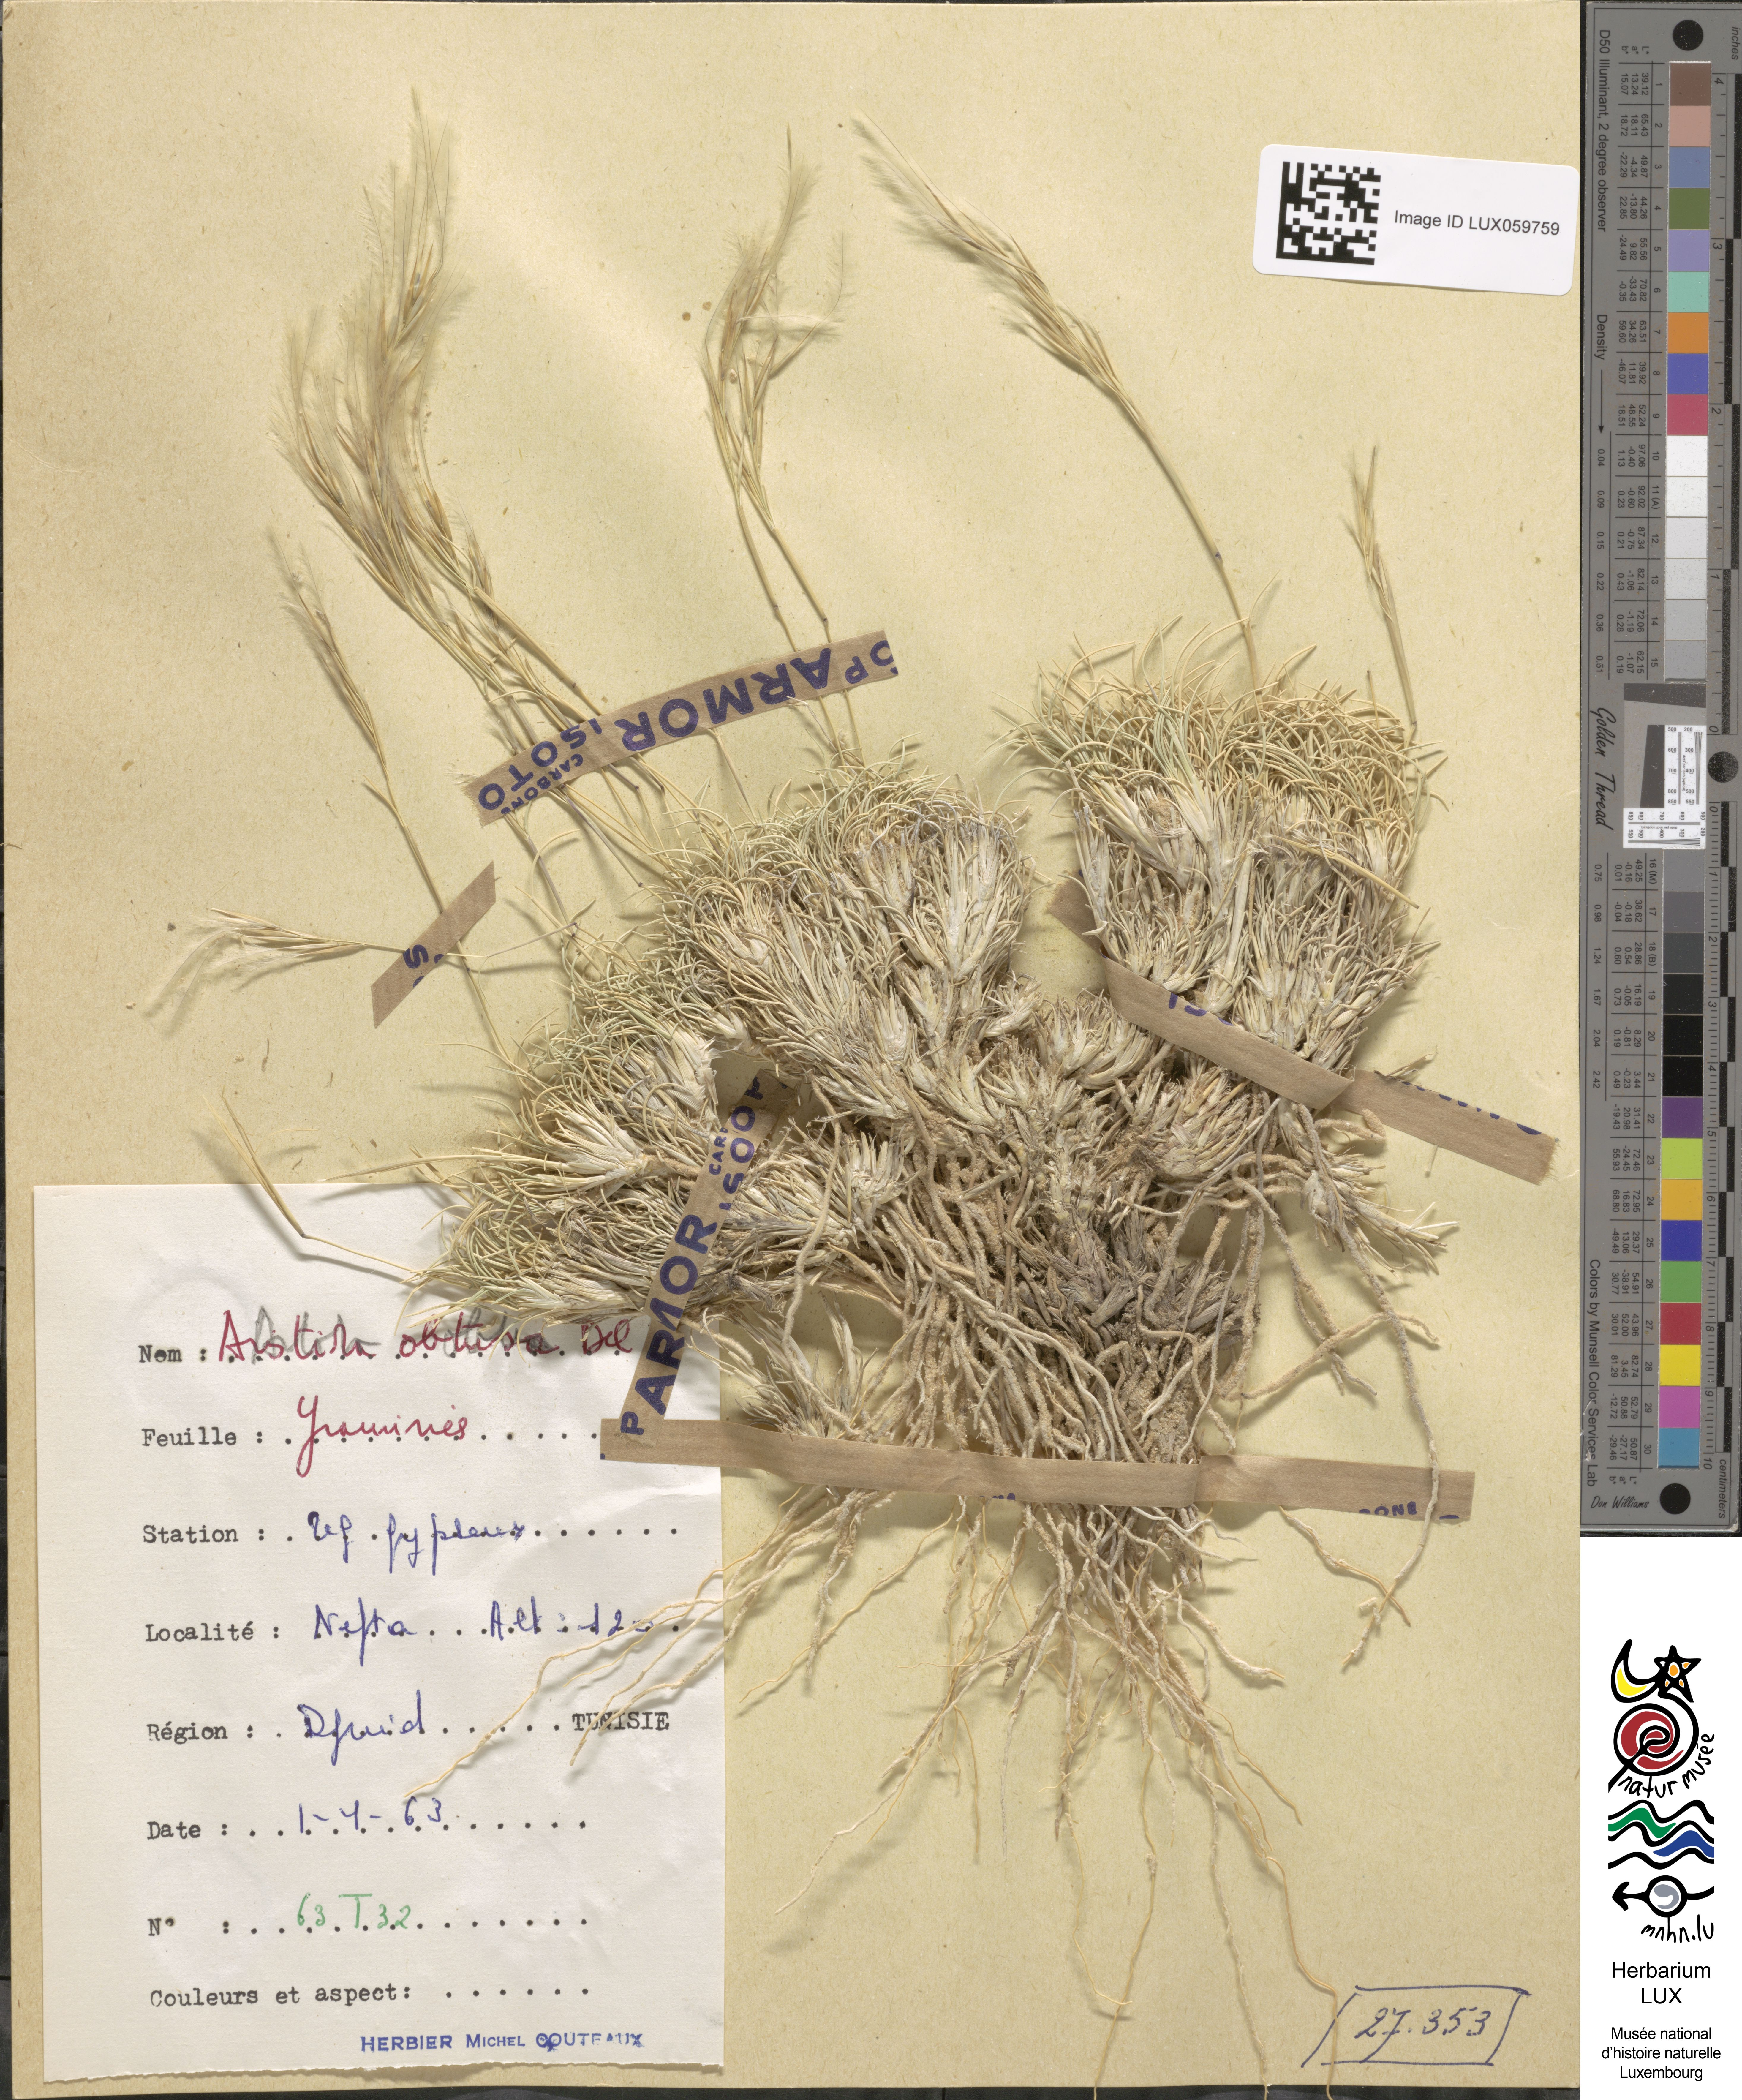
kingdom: Plantae
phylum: Tracheophyta
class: Liliopsida
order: Poales
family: Poaceae
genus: Stipagrostis
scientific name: Stipagrostis obtusa
